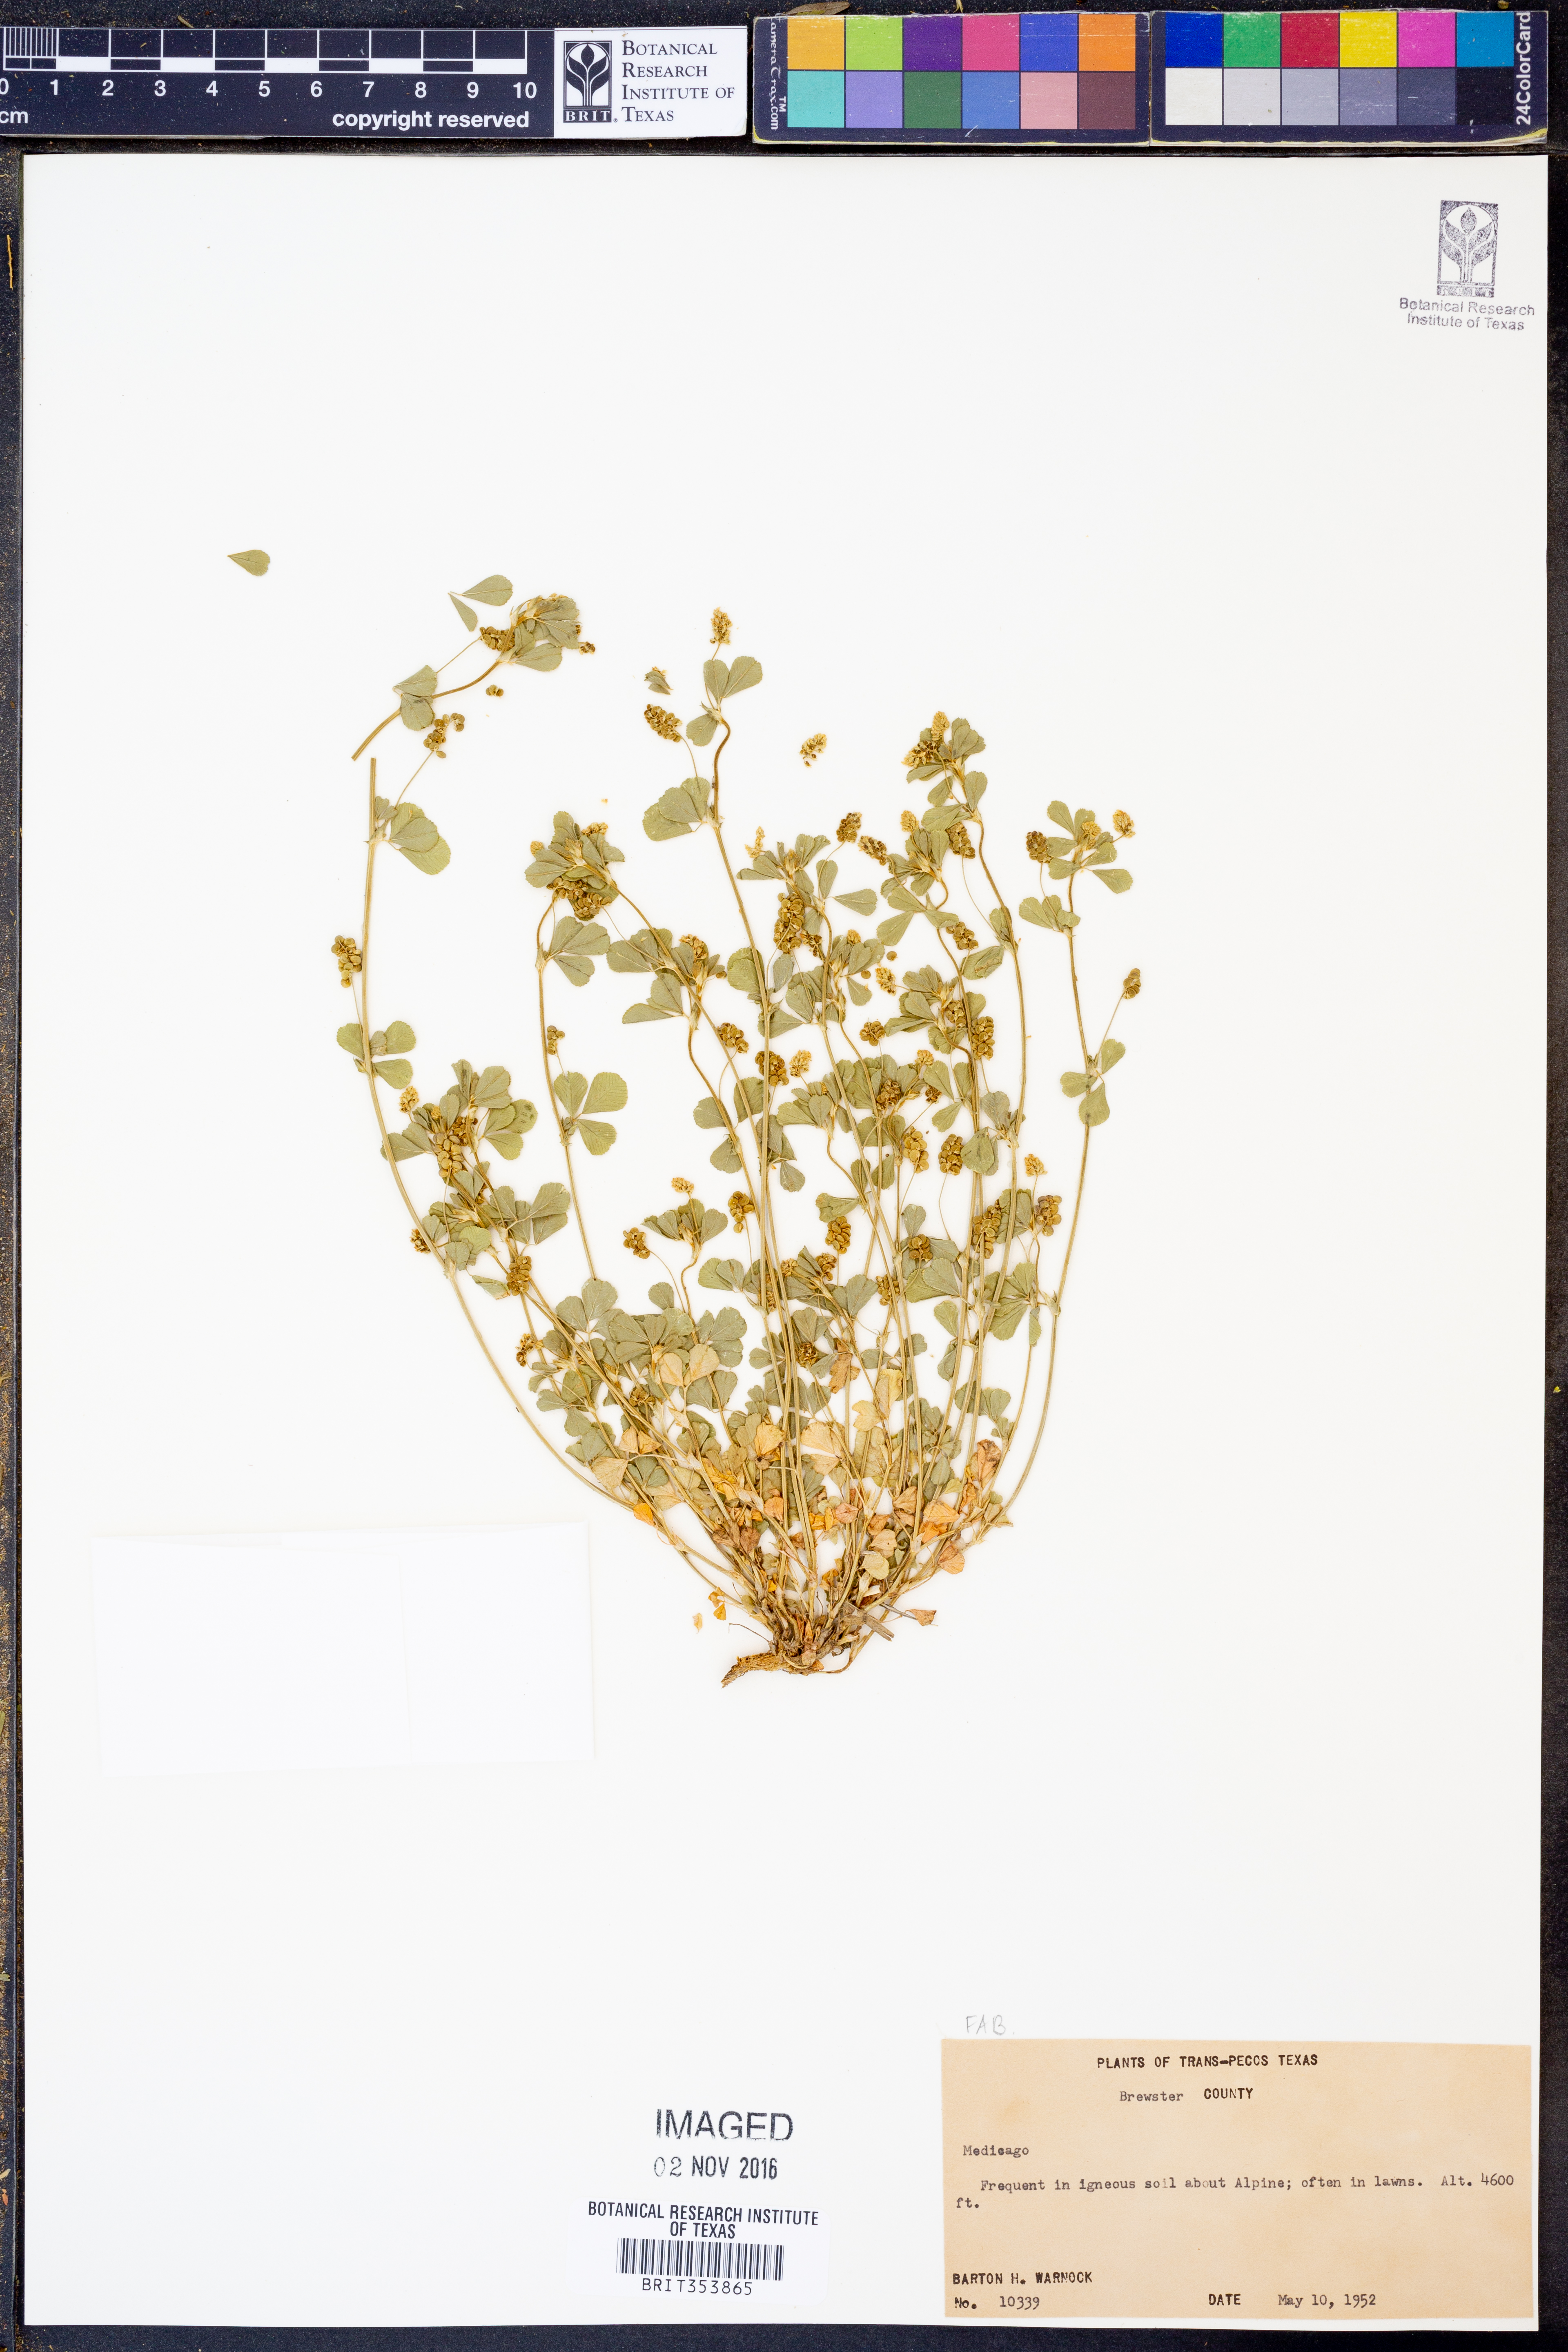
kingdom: Plantae
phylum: Tracheophyta
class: Magnoliopsida
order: Fabales
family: Fabaceae
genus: Medicago
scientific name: Medicago
